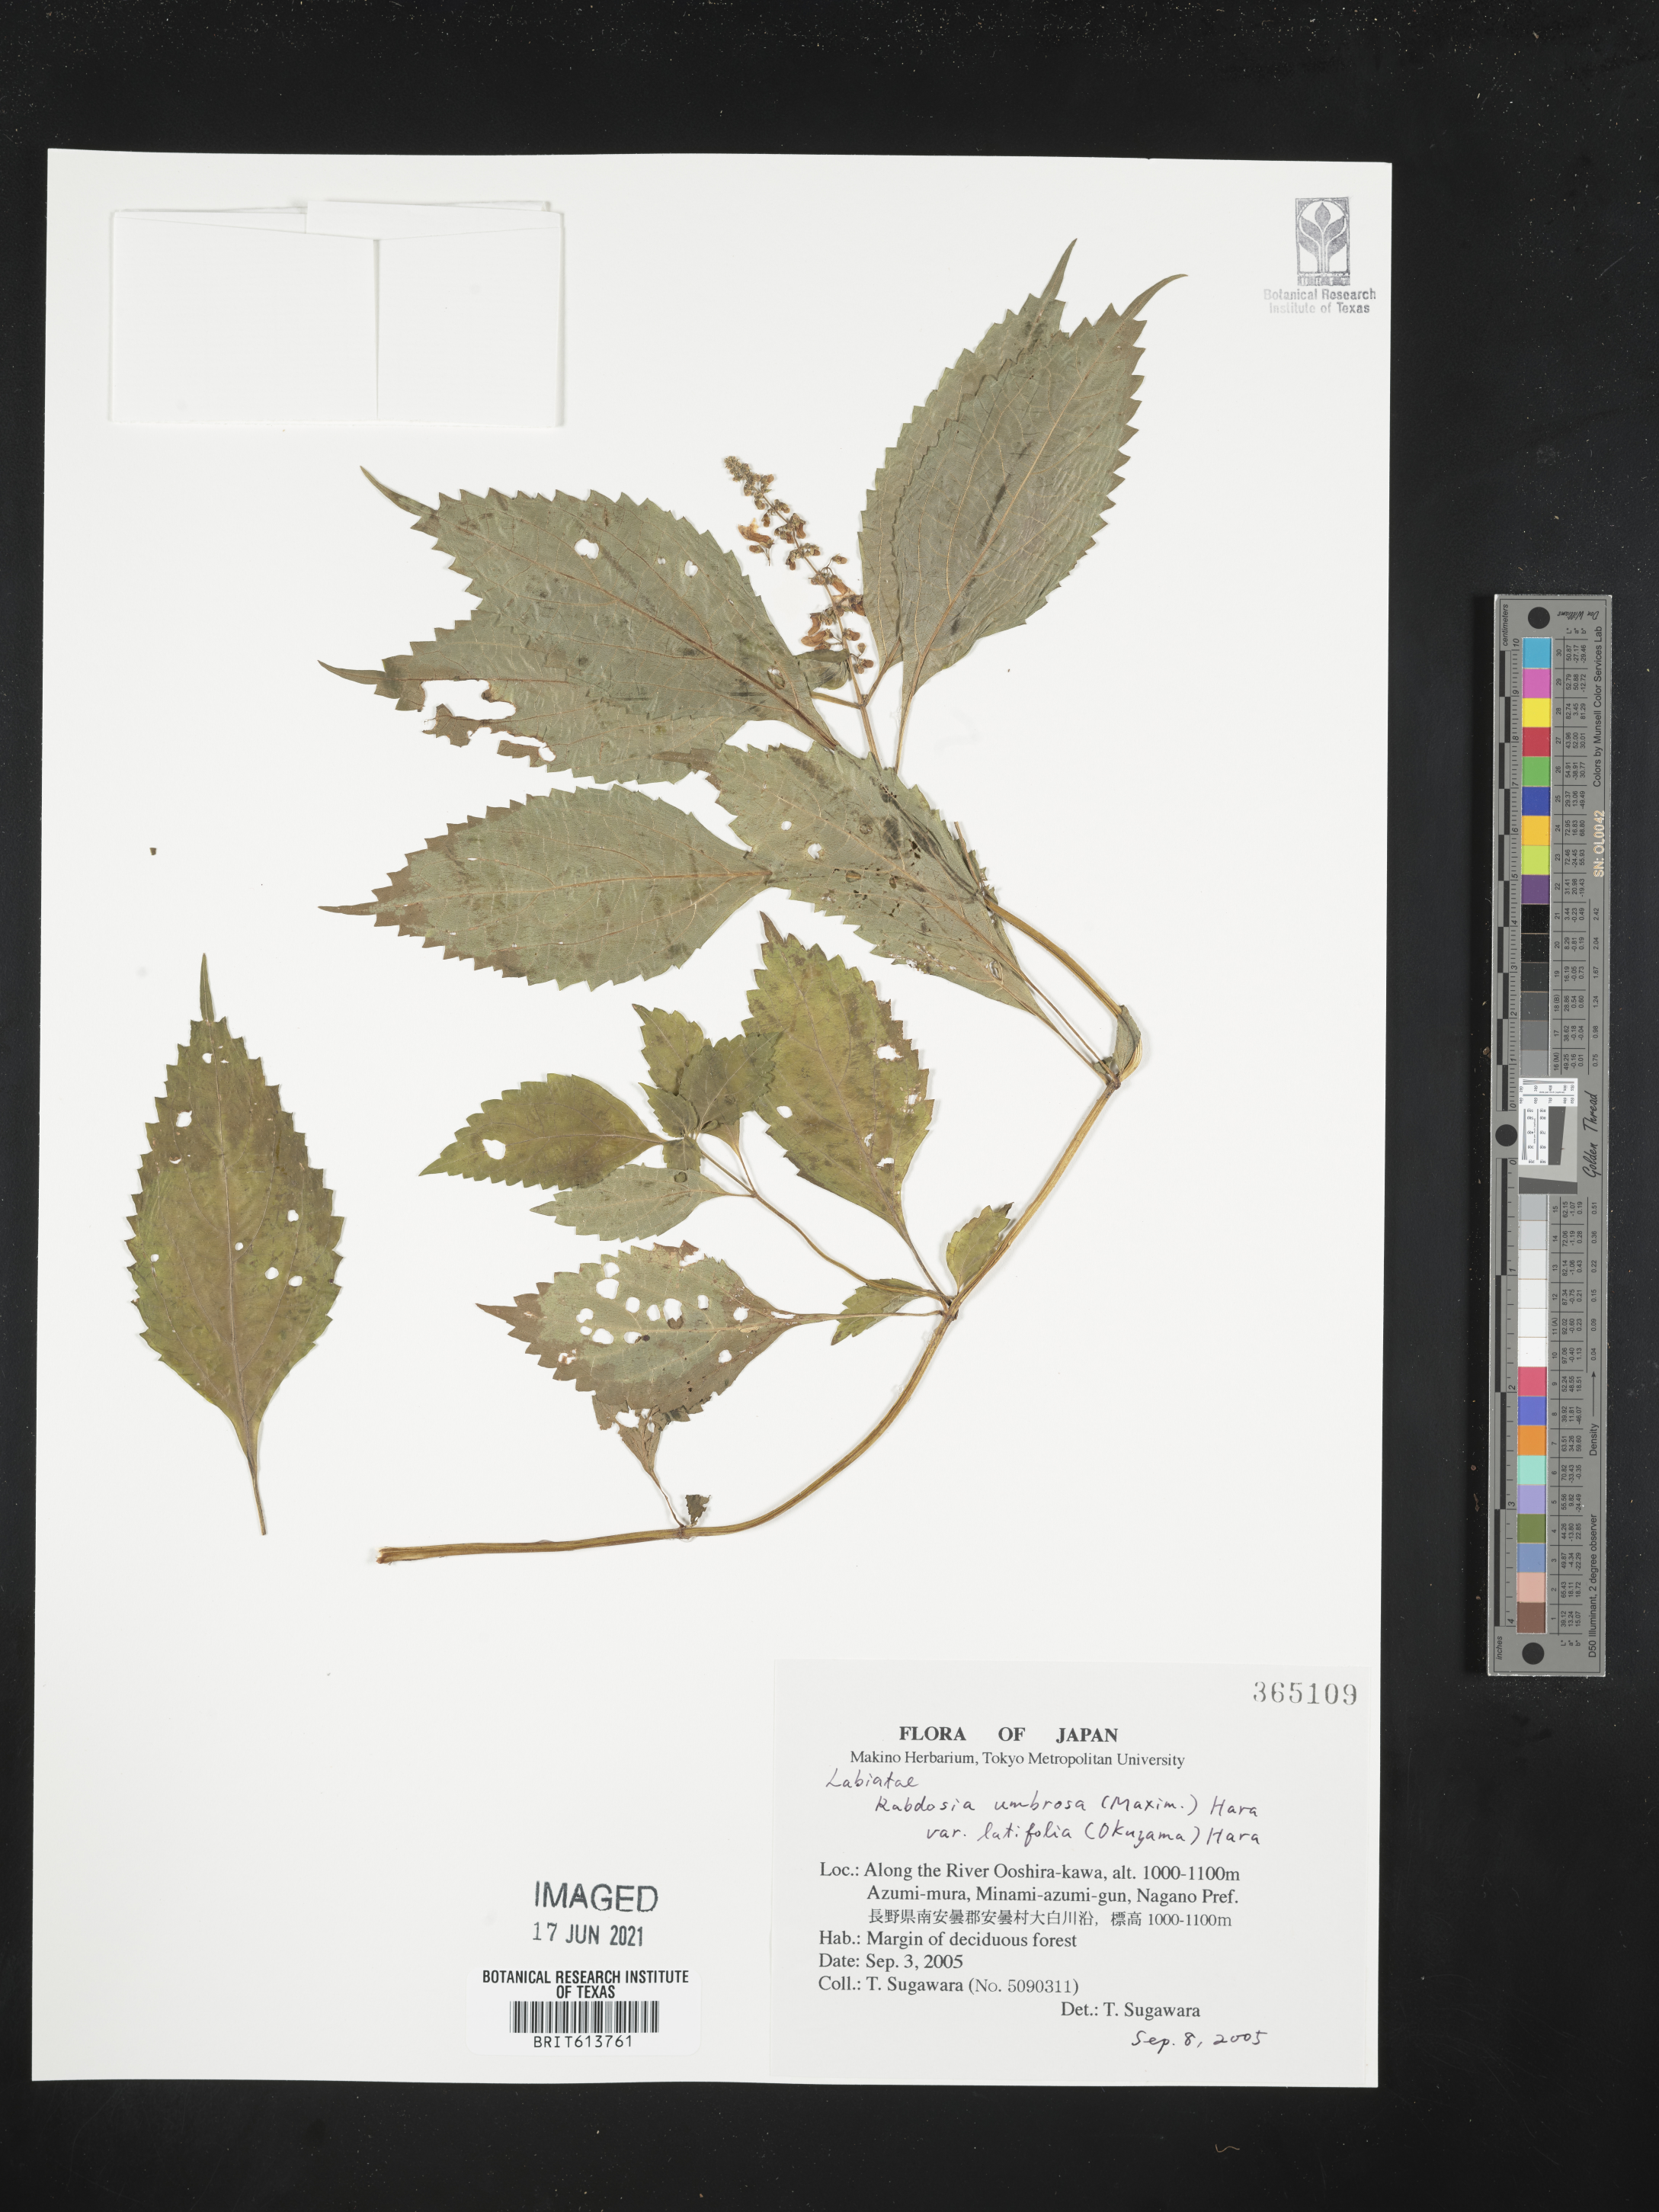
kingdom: Plantae
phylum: Tracheophyta
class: Magnoliopsida
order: Lamiales
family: Lamiaceae
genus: Isodon
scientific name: Isodon umbrosus
